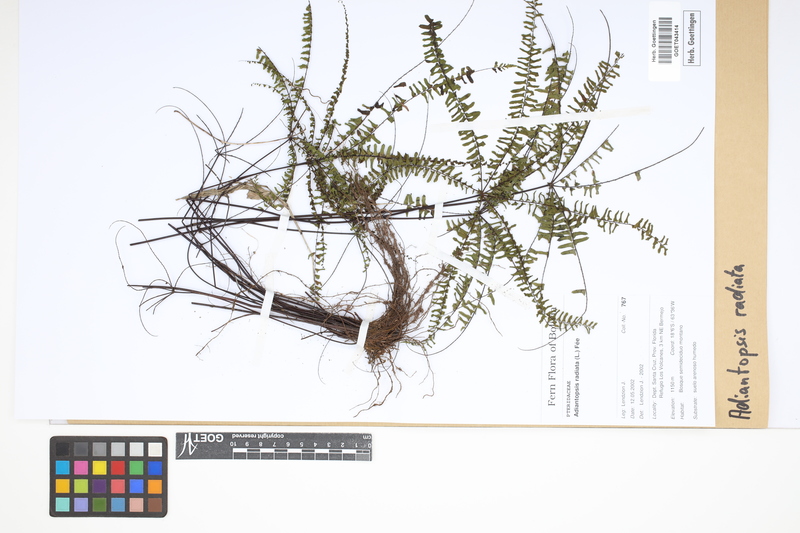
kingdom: Plantae
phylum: Tracheophyta
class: Polypodiopsida
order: Polypodiales
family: Pteridaceae
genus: Adiantopsis
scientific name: Adiantopsis radiata
